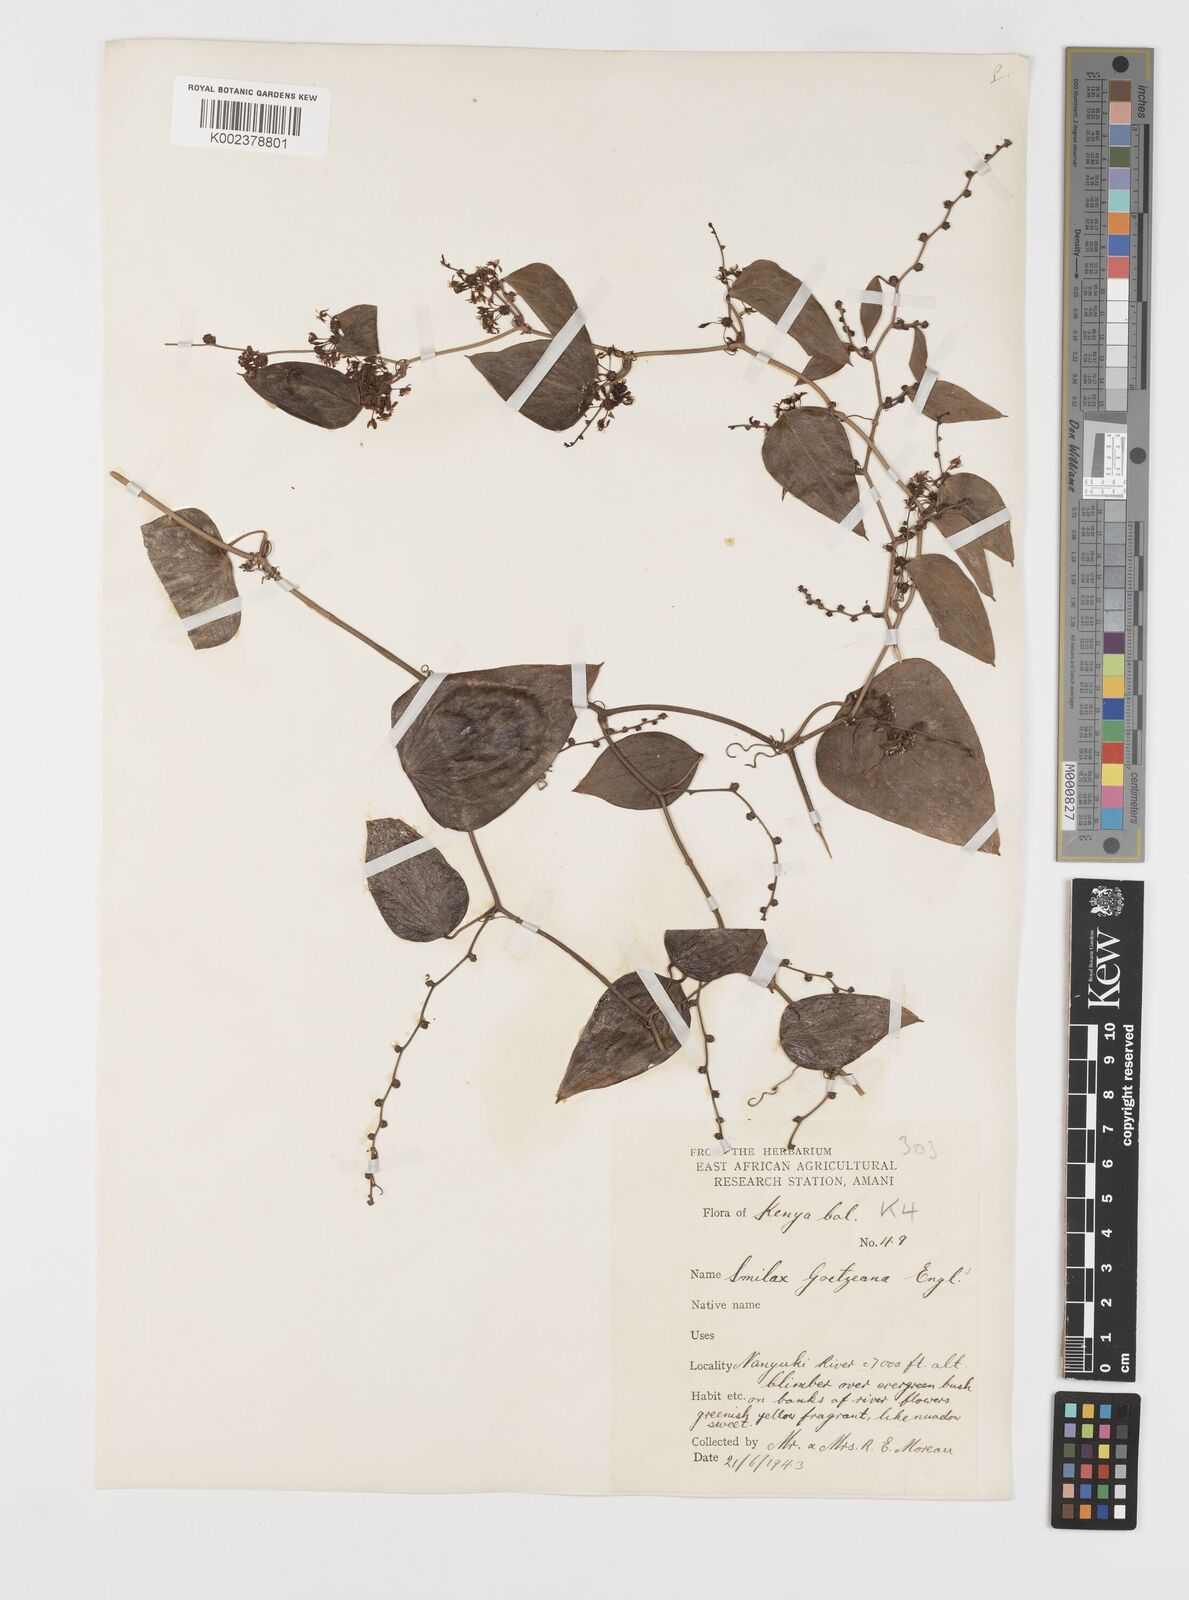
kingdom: Plantae
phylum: Tracheophyta
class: Liliopsida
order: Liliales
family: Smilacaceae
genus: Smilax
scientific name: Smilax
